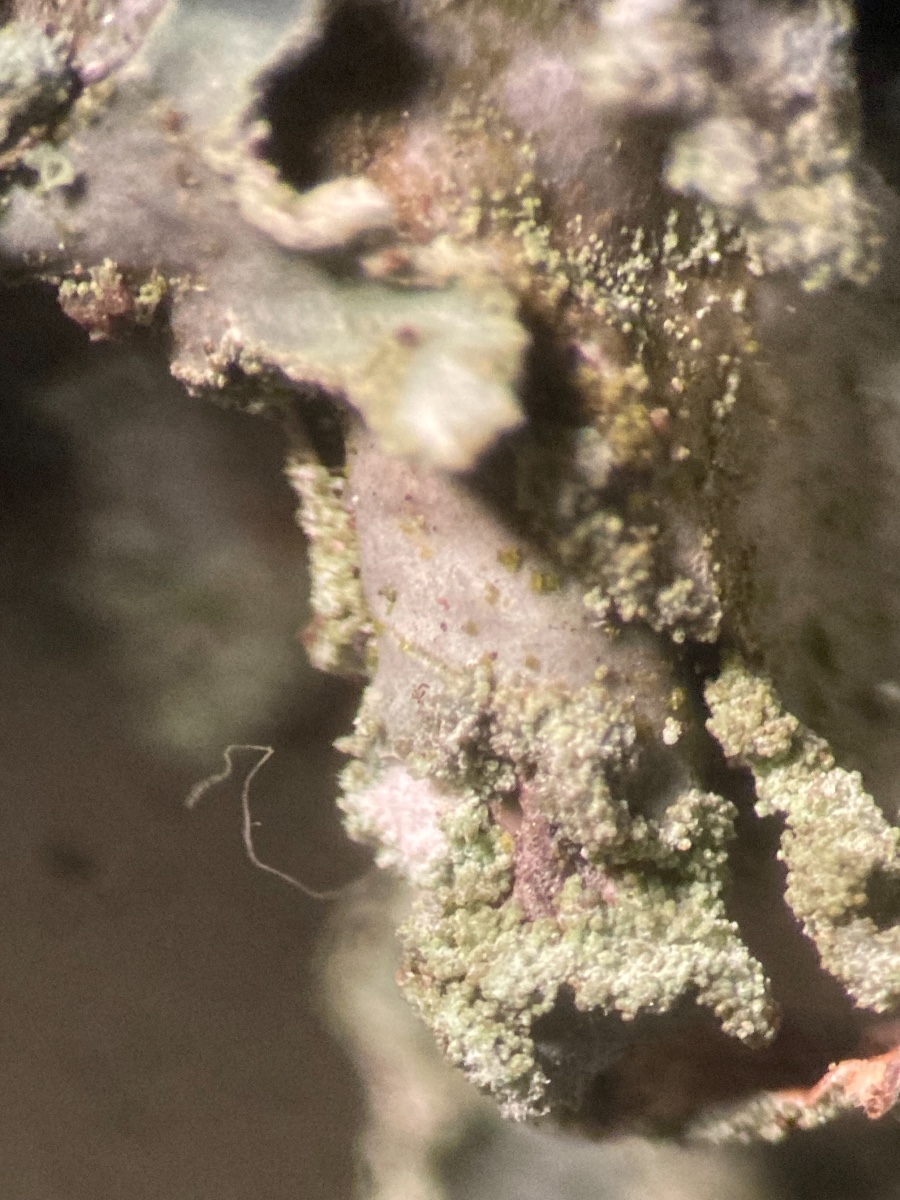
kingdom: Fungi
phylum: Ascomycota
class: Lecanoromycetes
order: Lecanorales
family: Parmeliaceae
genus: Parmelia
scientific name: Parmelia sulcata
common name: rynket skållav
